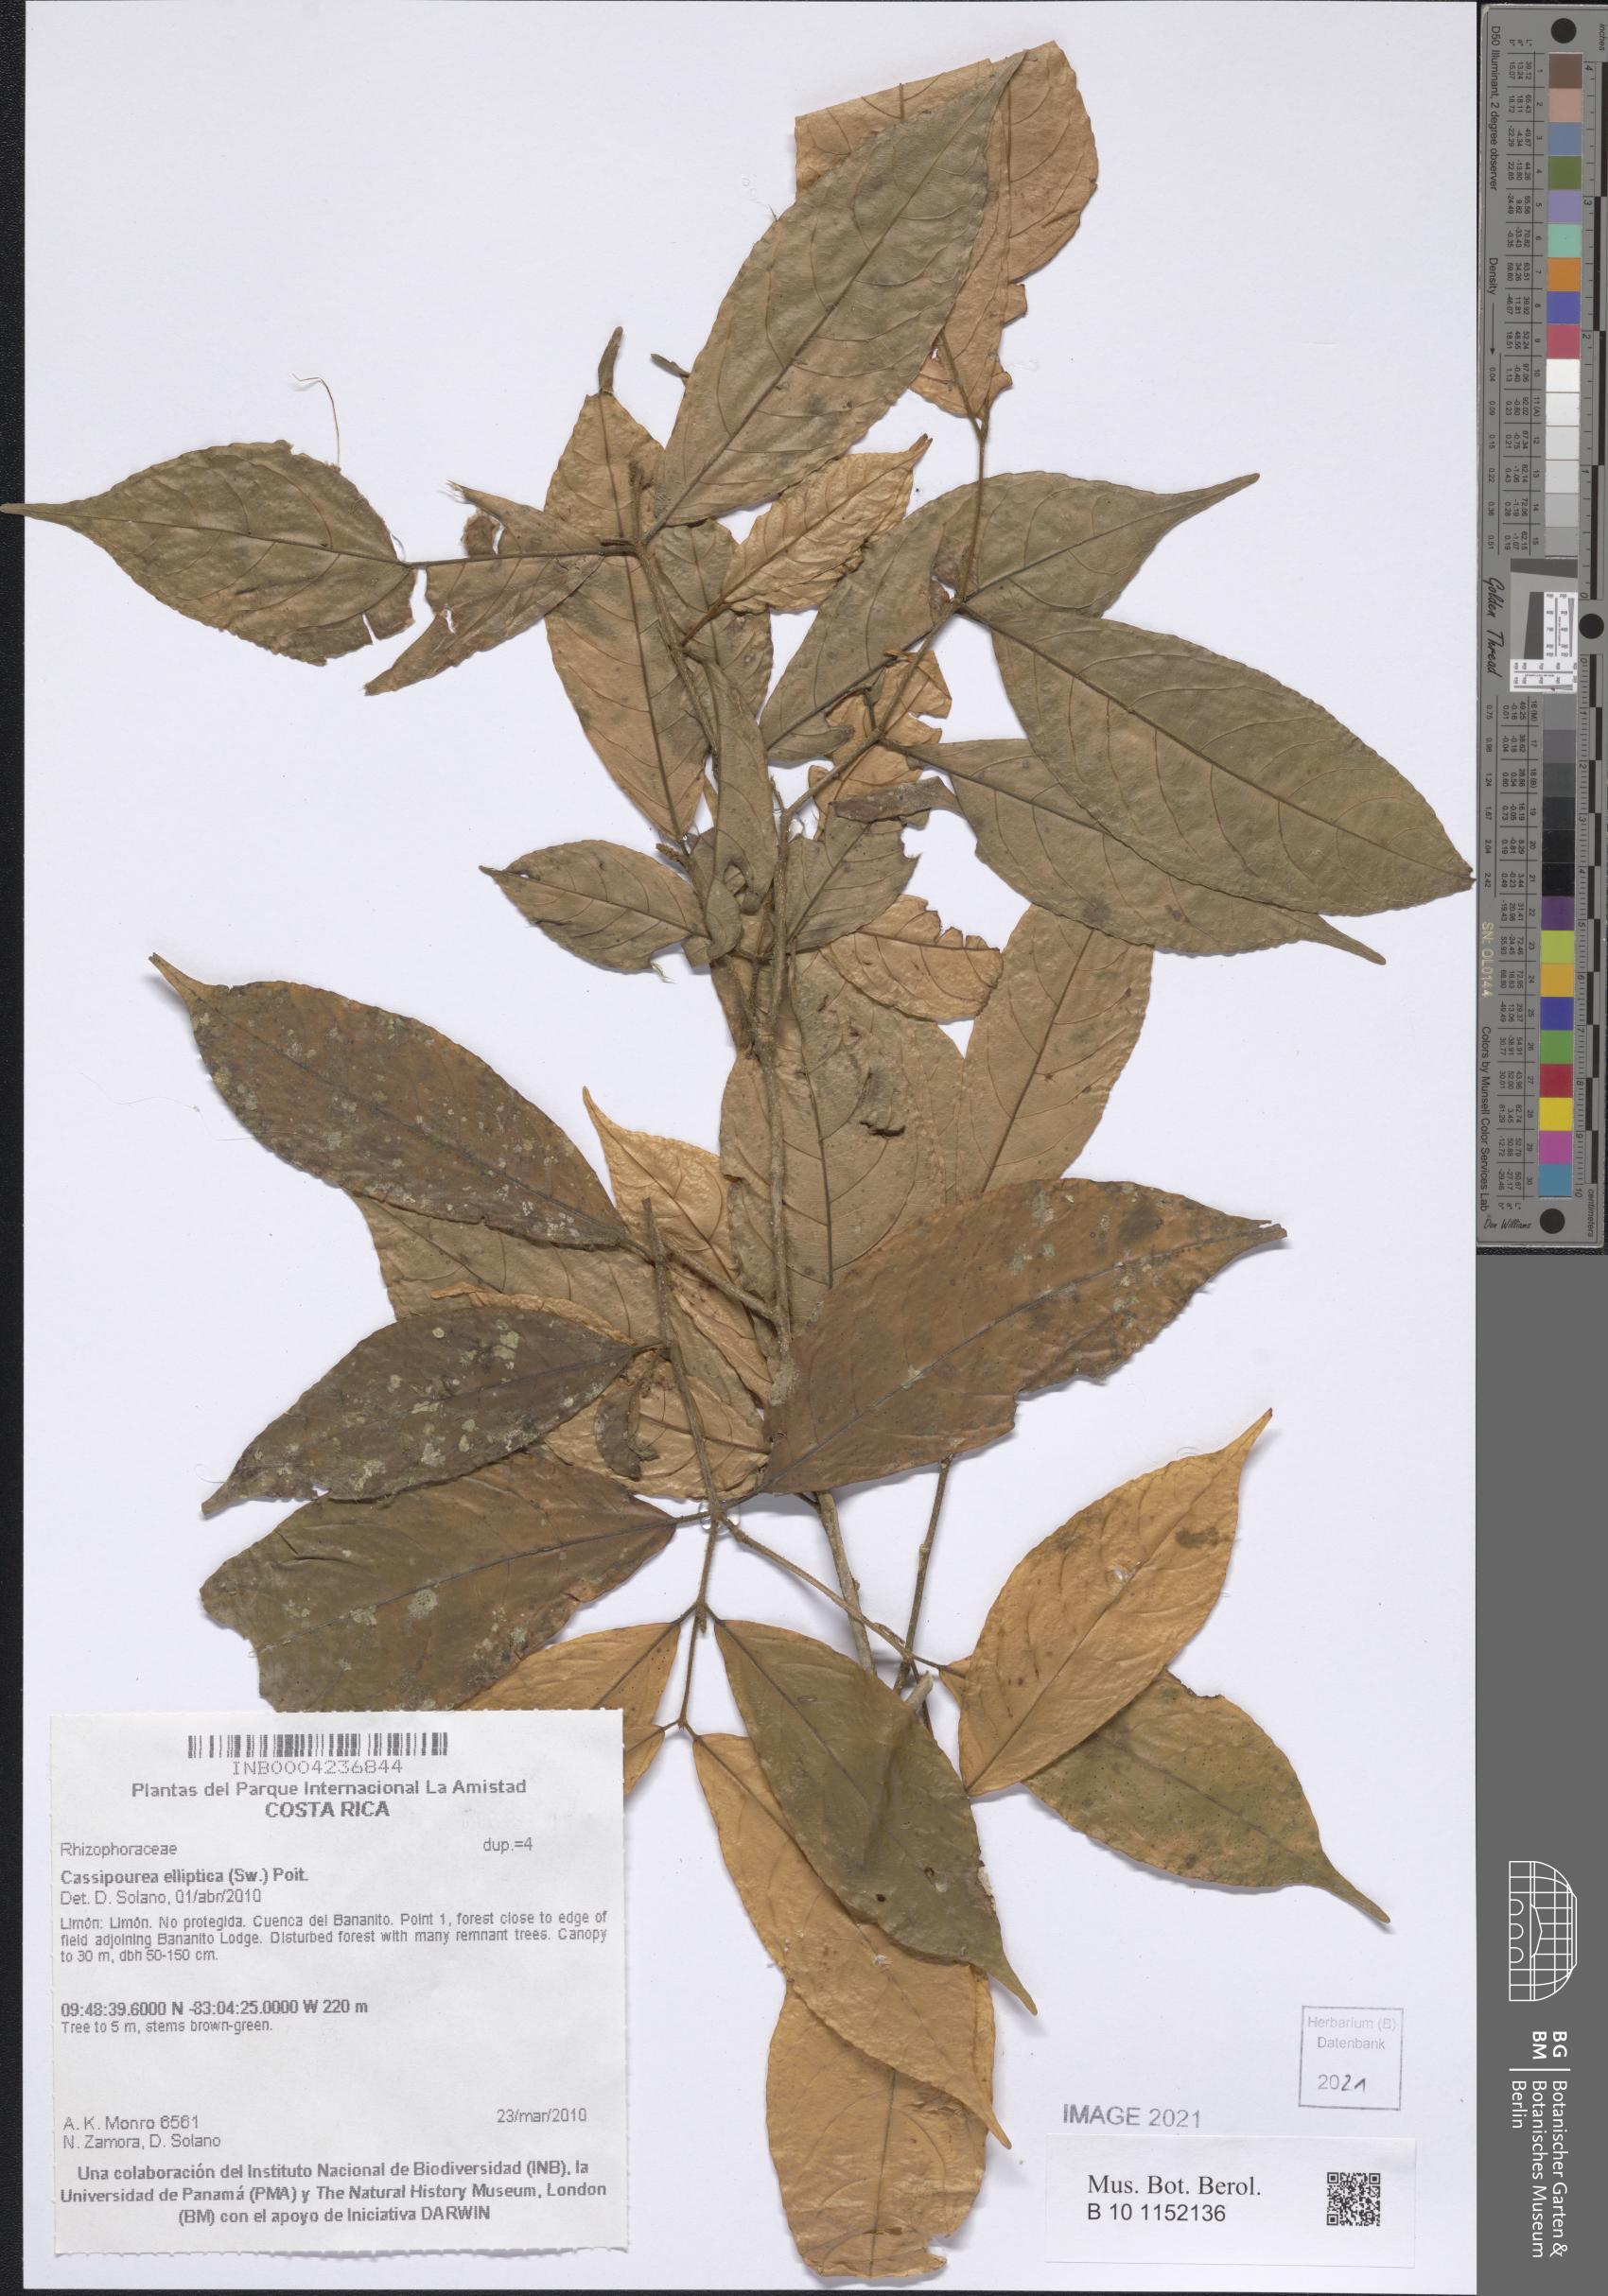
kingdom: Plantae
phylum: Tracheophyta
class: Magnoliopsida
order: Malpighiales
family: Violaceae
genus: Rinorea
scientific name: Rinorea dasyadena
